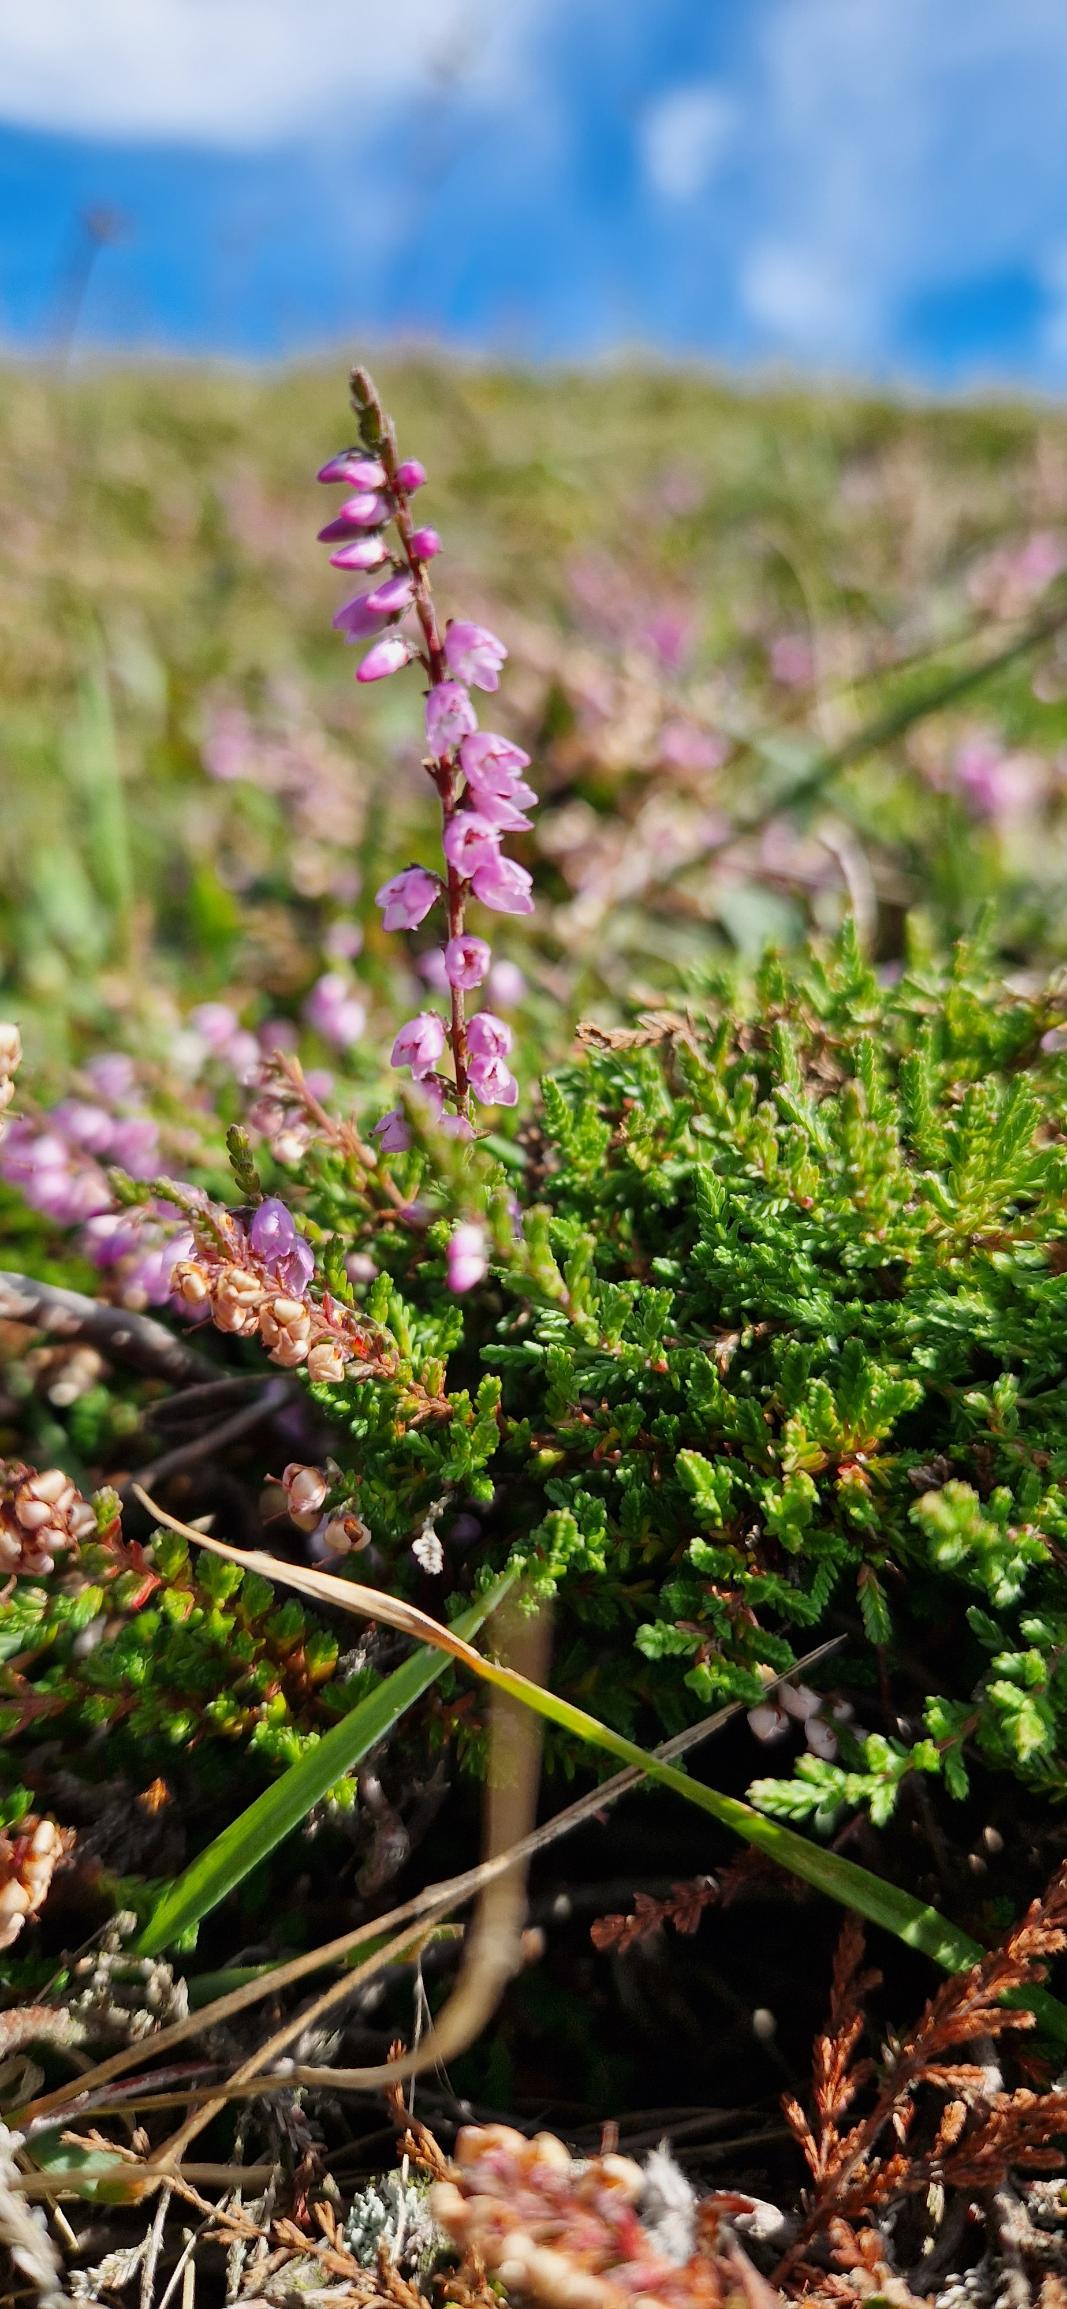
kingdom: Plantae
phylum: Tracheophyta
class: Magnoliopsida
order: Ericales
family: Ericaceae
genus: Calluna
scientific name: Calluna vulgaris
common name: Hedelyng
